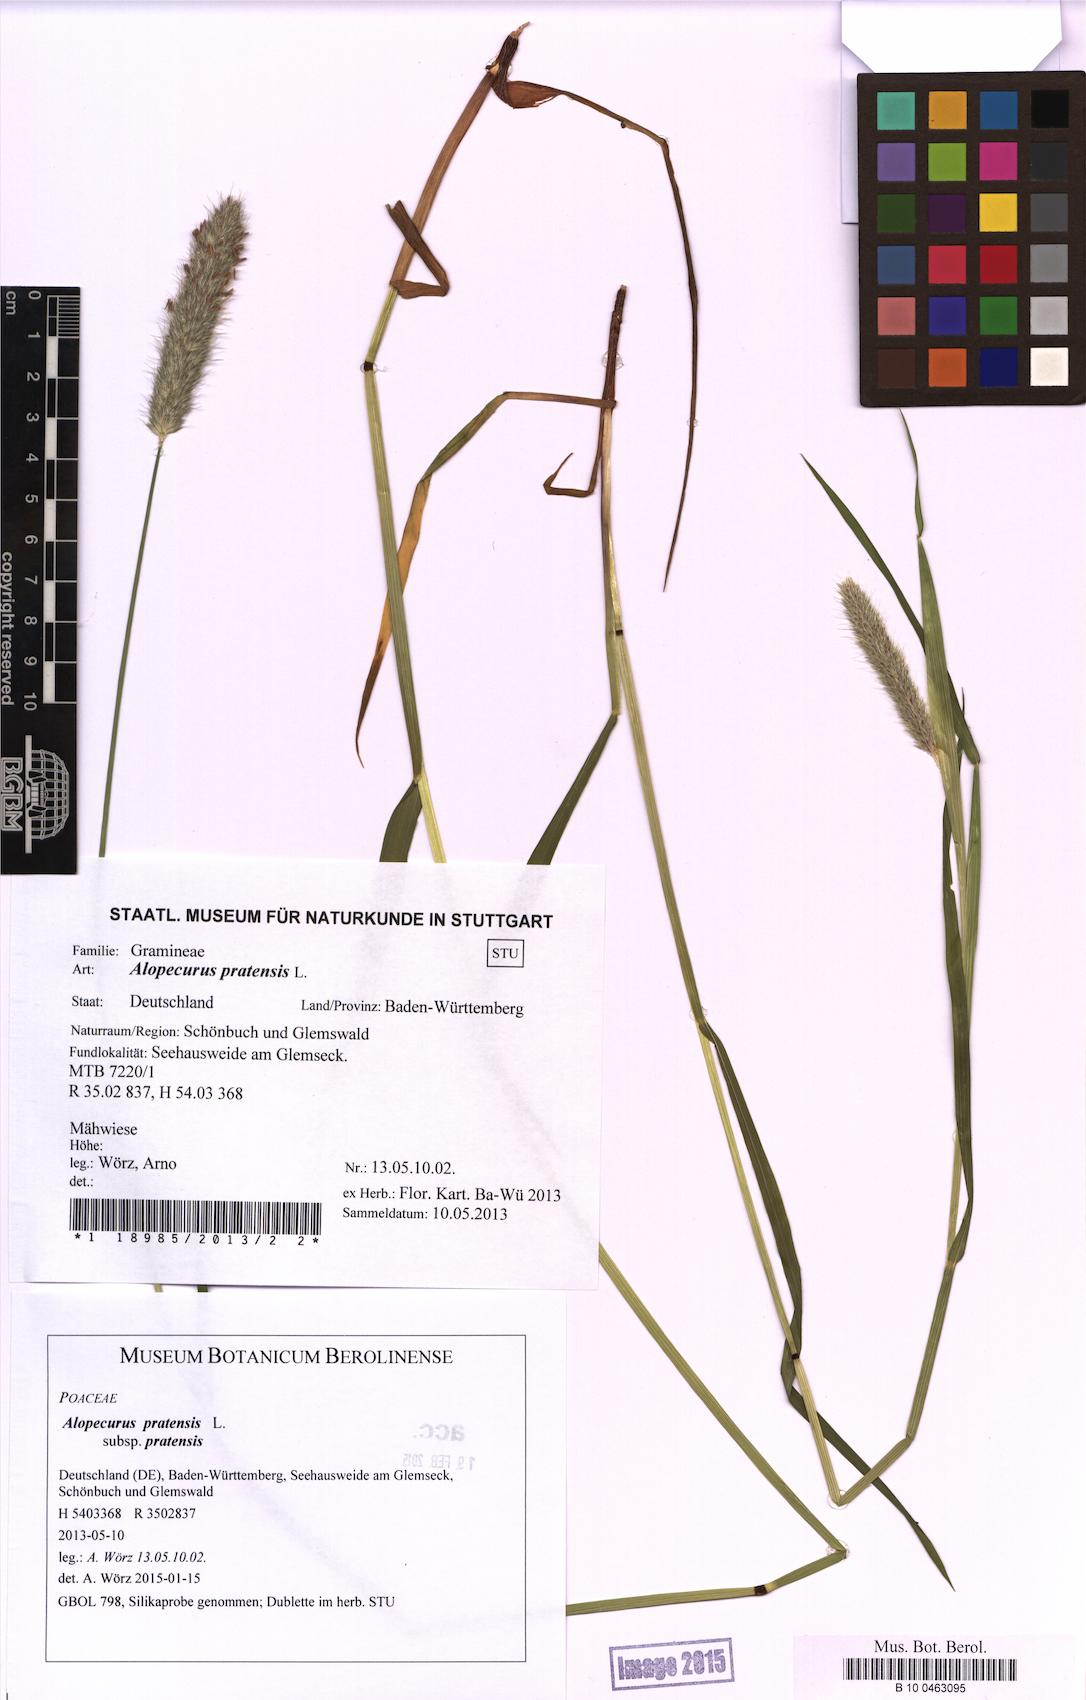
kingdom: Plantae
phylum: Tracheophyta
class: Liliopsida
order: Poales
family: Poaceae
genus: Alopecurus
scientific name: Alopecurus pratensis
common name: Meadow foxtail
